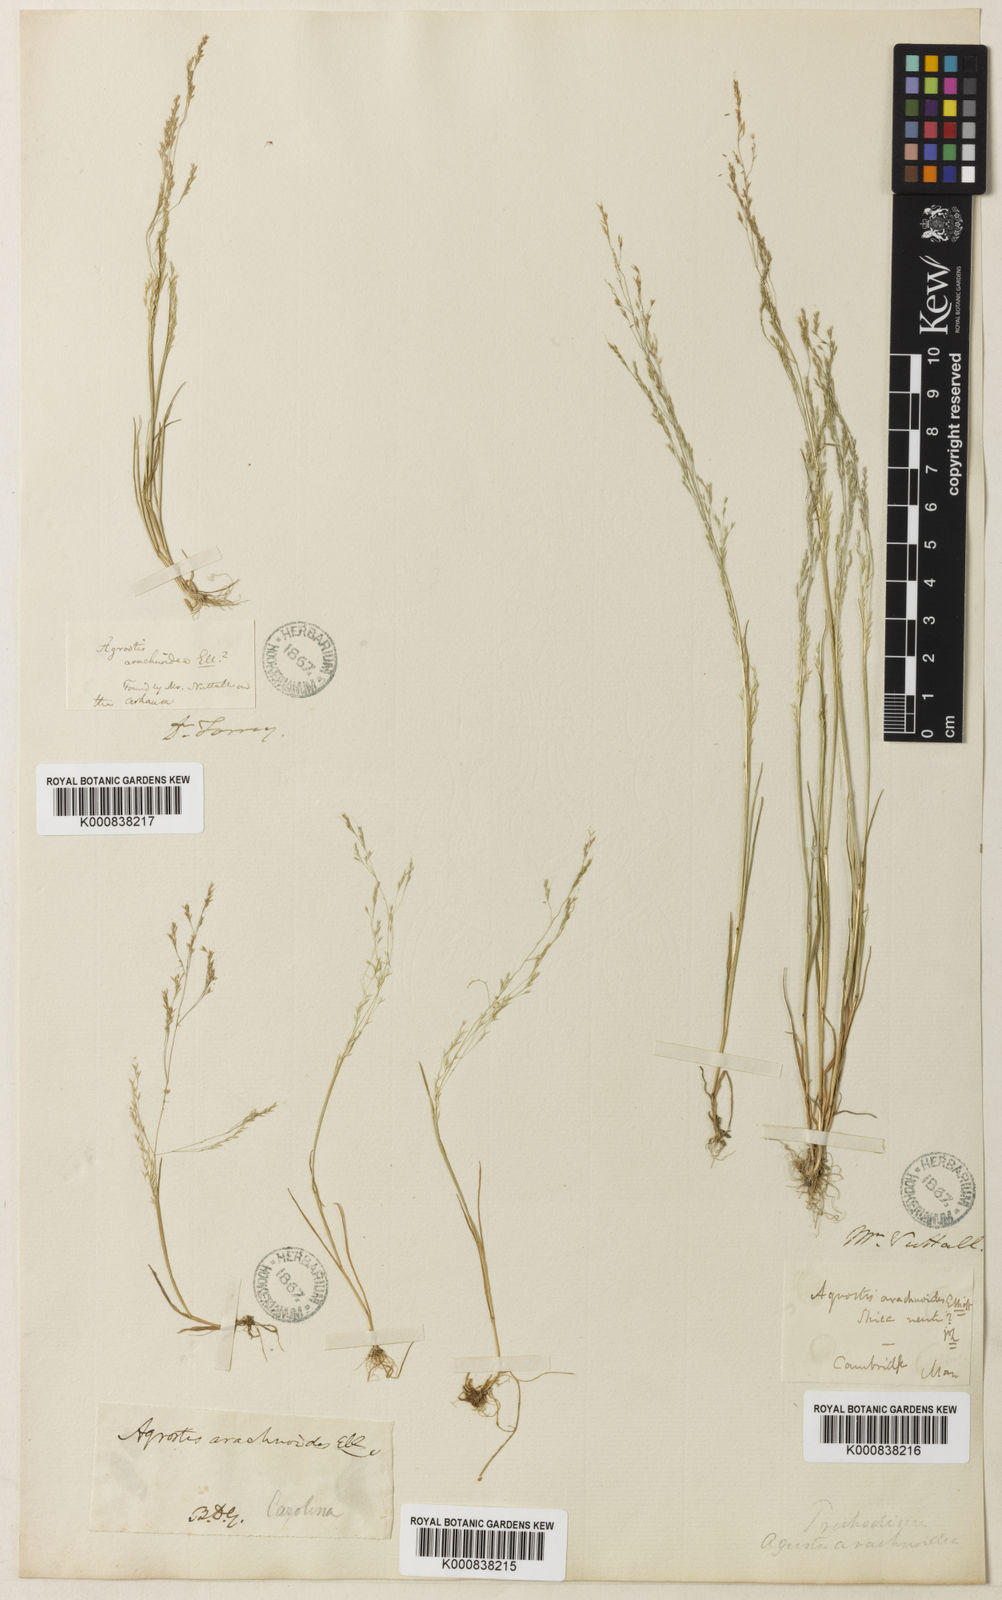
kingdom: Plantae
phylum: Tracheophyta
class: Liliopsida
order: Poales
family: Poaceae
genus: Agrostis
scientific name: Agrostis elliottiana
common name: Elliott's bent
